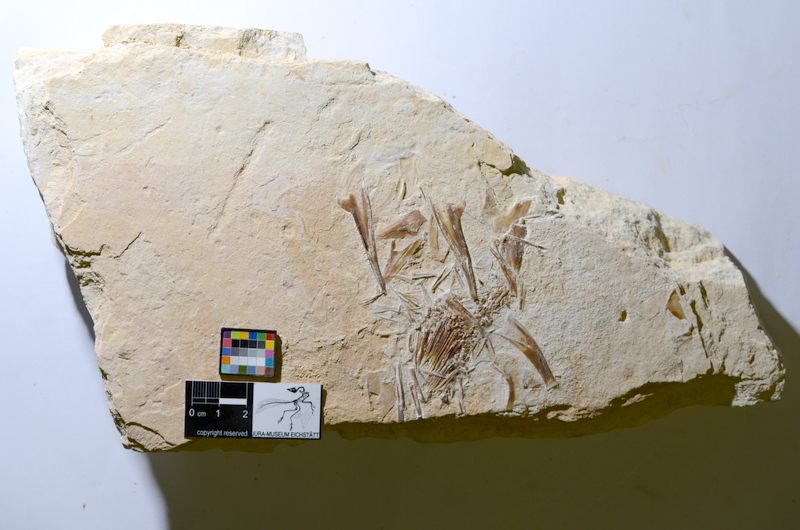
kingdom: Animalia
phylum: Chordata
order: Amiiformes
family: Caturidae
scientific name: Caturidae
